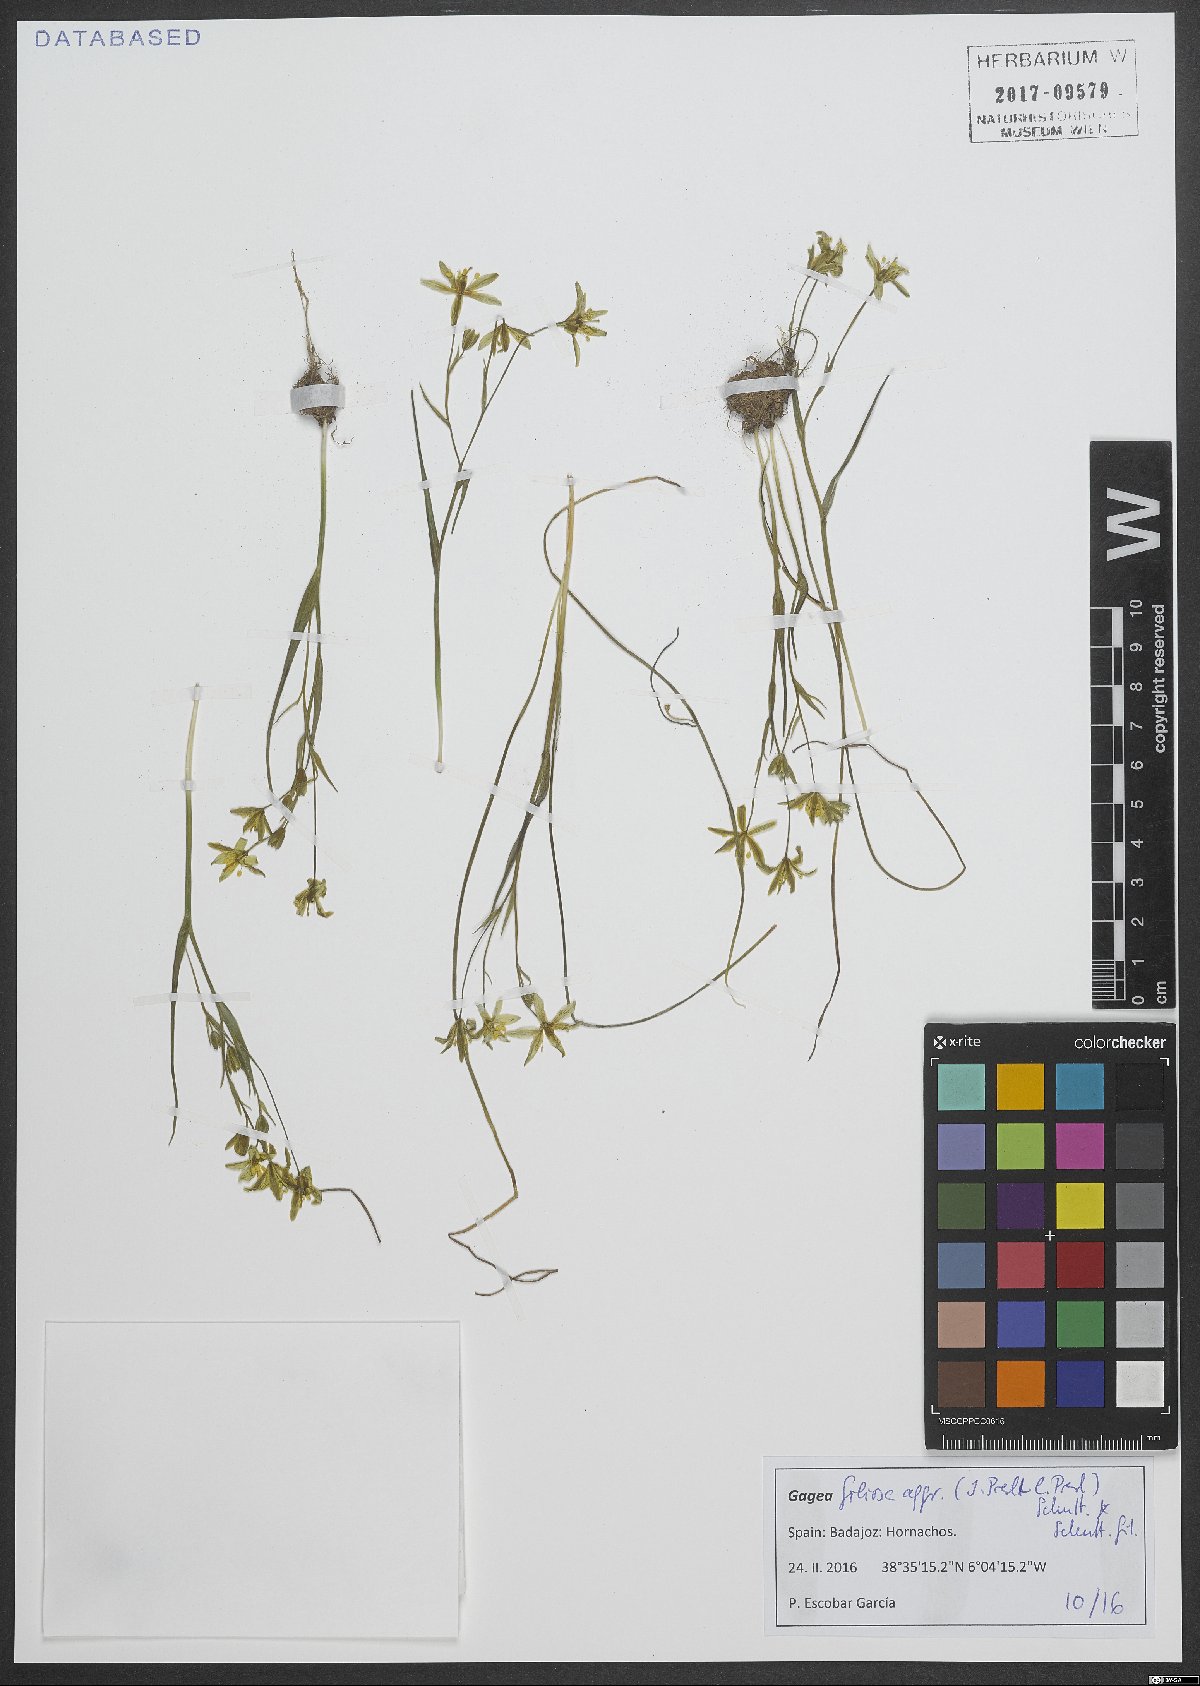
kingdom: Plantae
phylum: Tracheophyta
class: Liliopsida
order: Liliales
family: Liliaceae
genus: Gagea
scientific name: Gagea foliosa
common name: Leafy gagea
